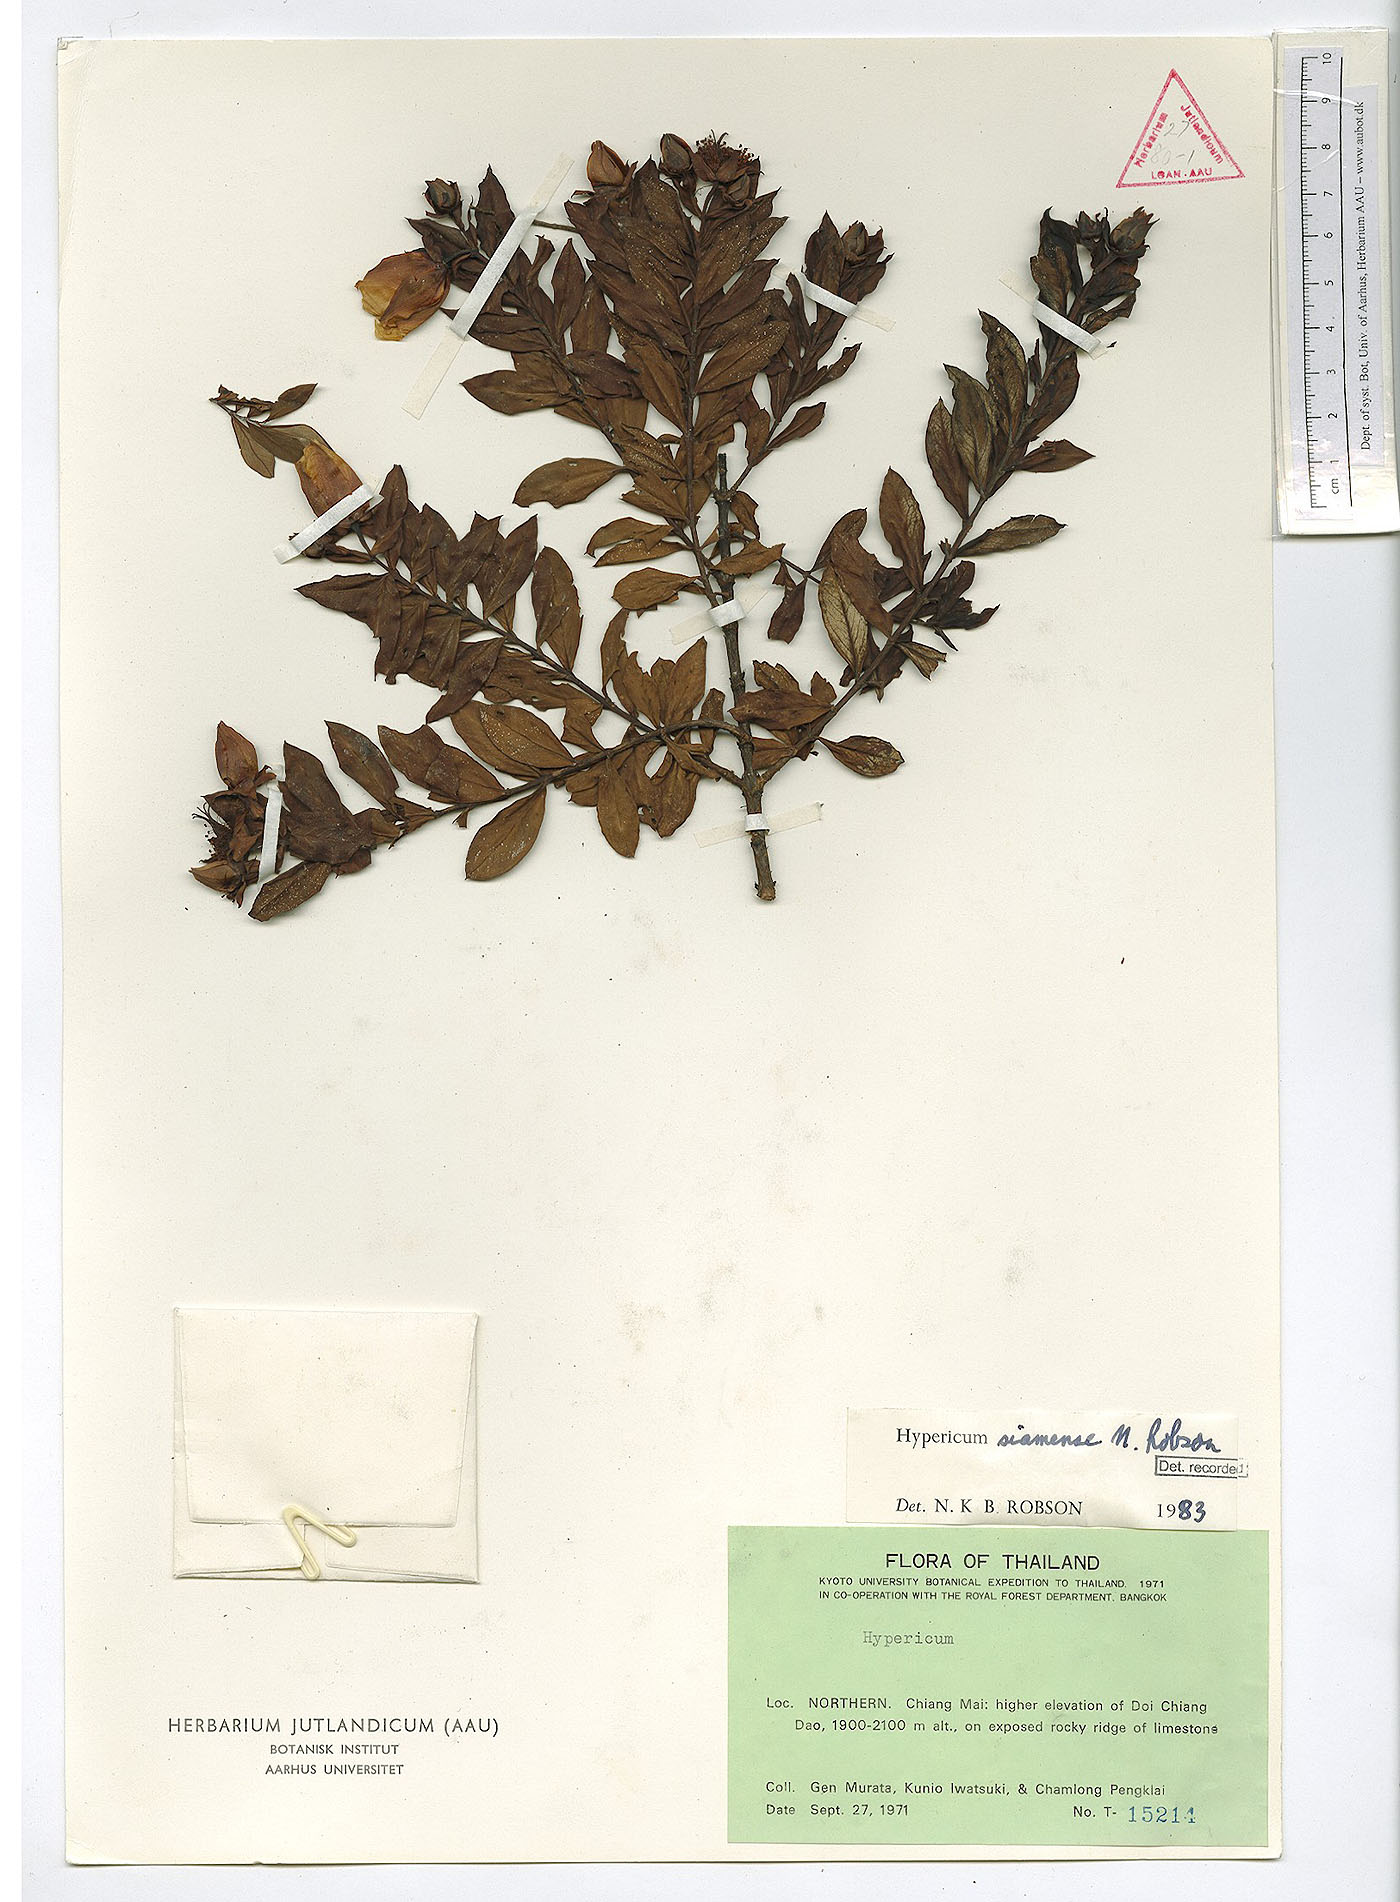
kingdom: Plantae
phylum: Tracheophyta
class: Magnoliopsida
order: Malpighiales
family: Hypericaceae
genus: Hypericum
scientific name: Hypericum siamense
